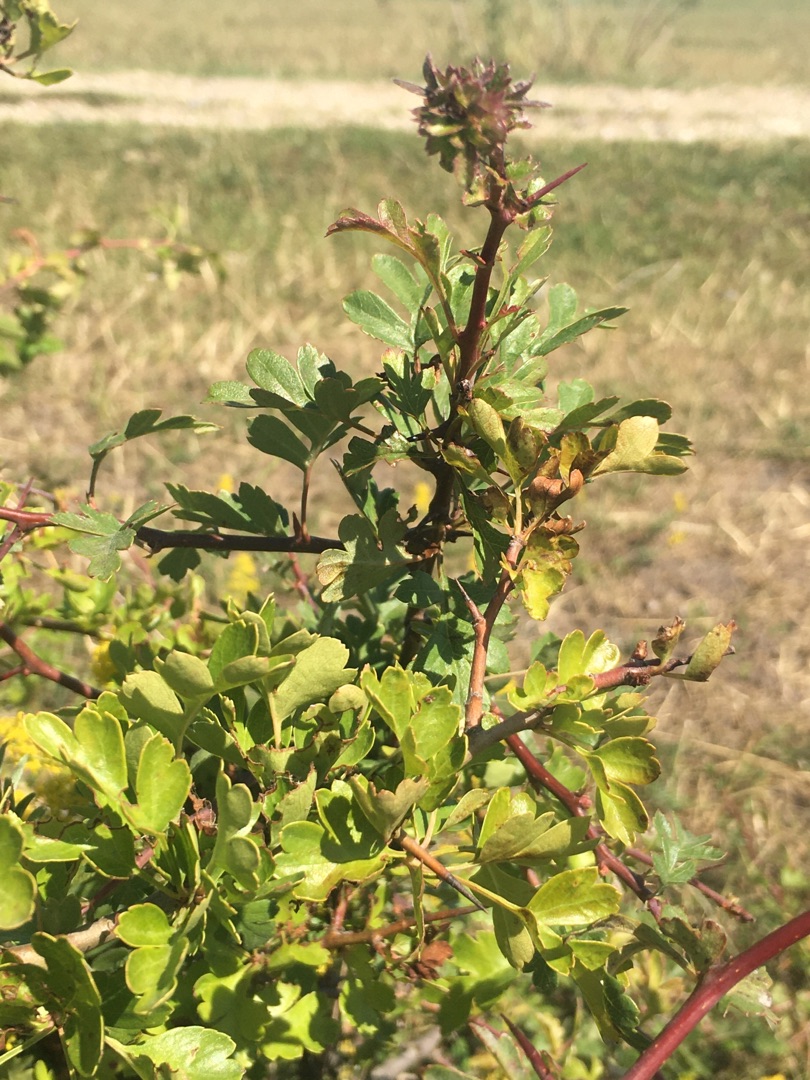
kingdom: Plantae
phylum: Tracheophyta
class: Magnoliopsida
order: Rosales
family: Rosaceae
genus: Crataegus
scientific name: Crataegus monogyna
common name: Engriflet hvidtjørn
